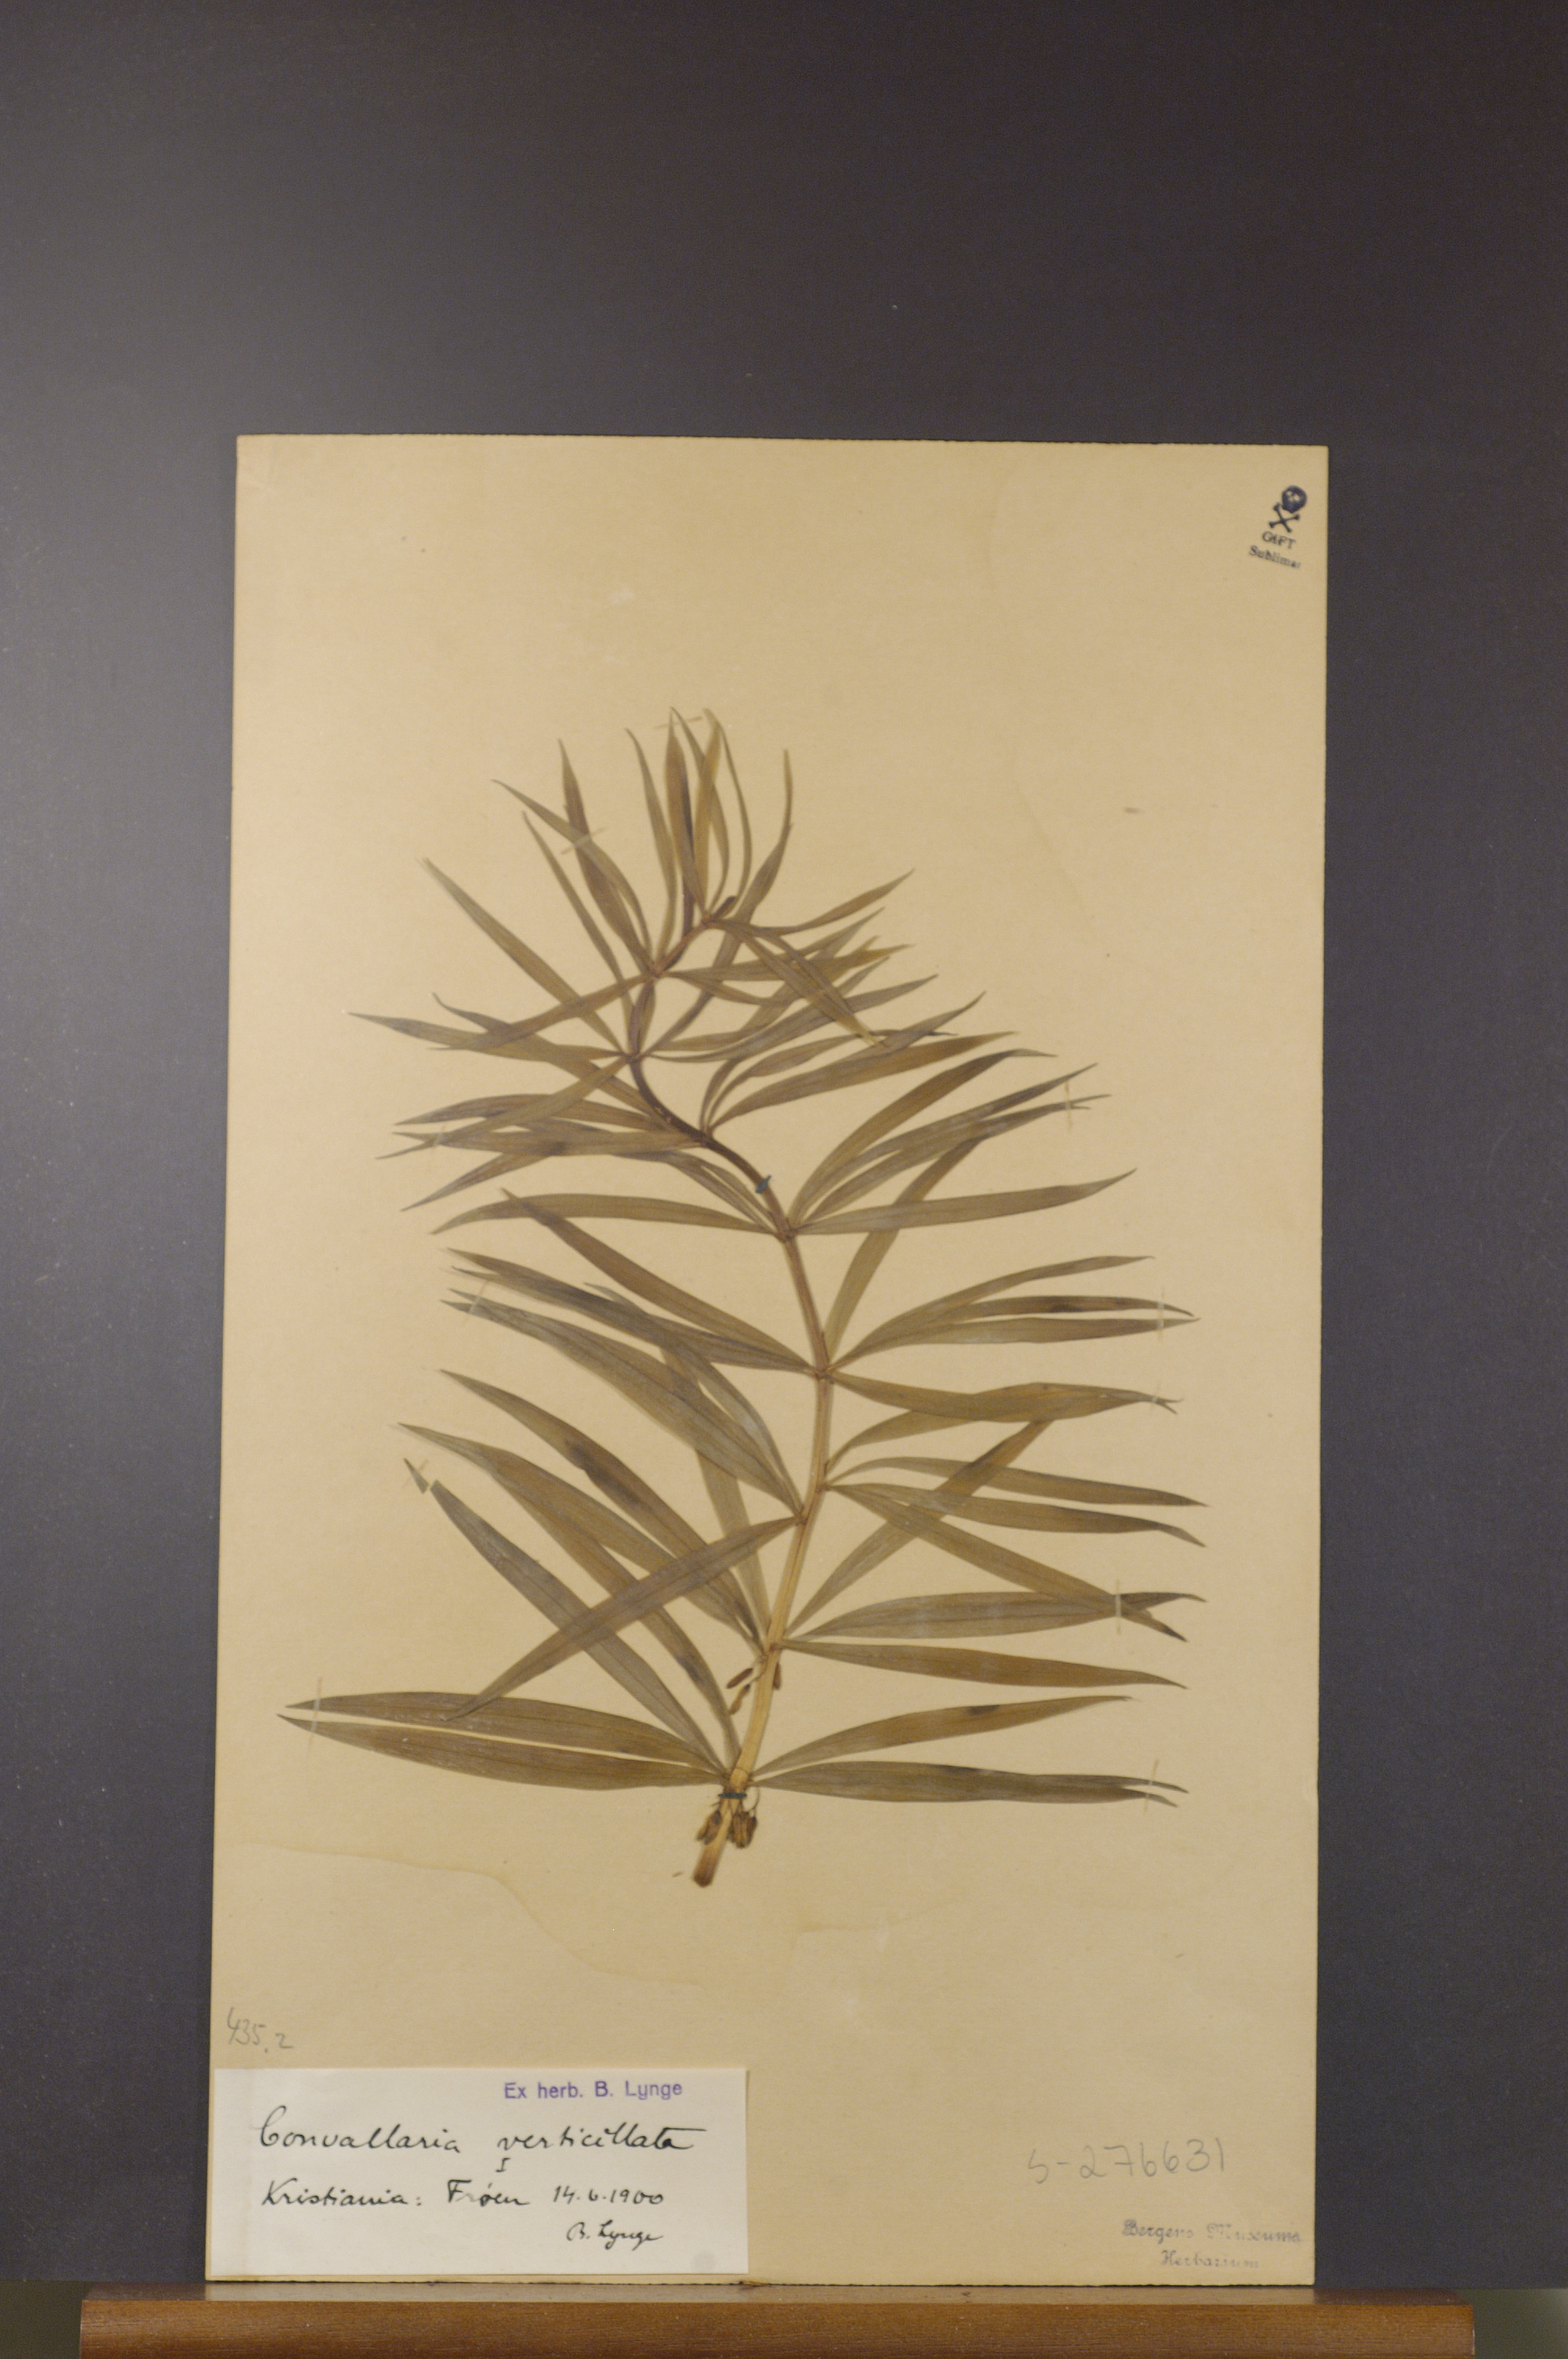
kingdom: Plantae
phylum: Tracheophyta
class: Liliopsida
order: Asparagales
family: Asparagaceae
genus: Polygonatum
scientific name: Polygonatum verticillatum
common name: Whorled solomon's-seal
